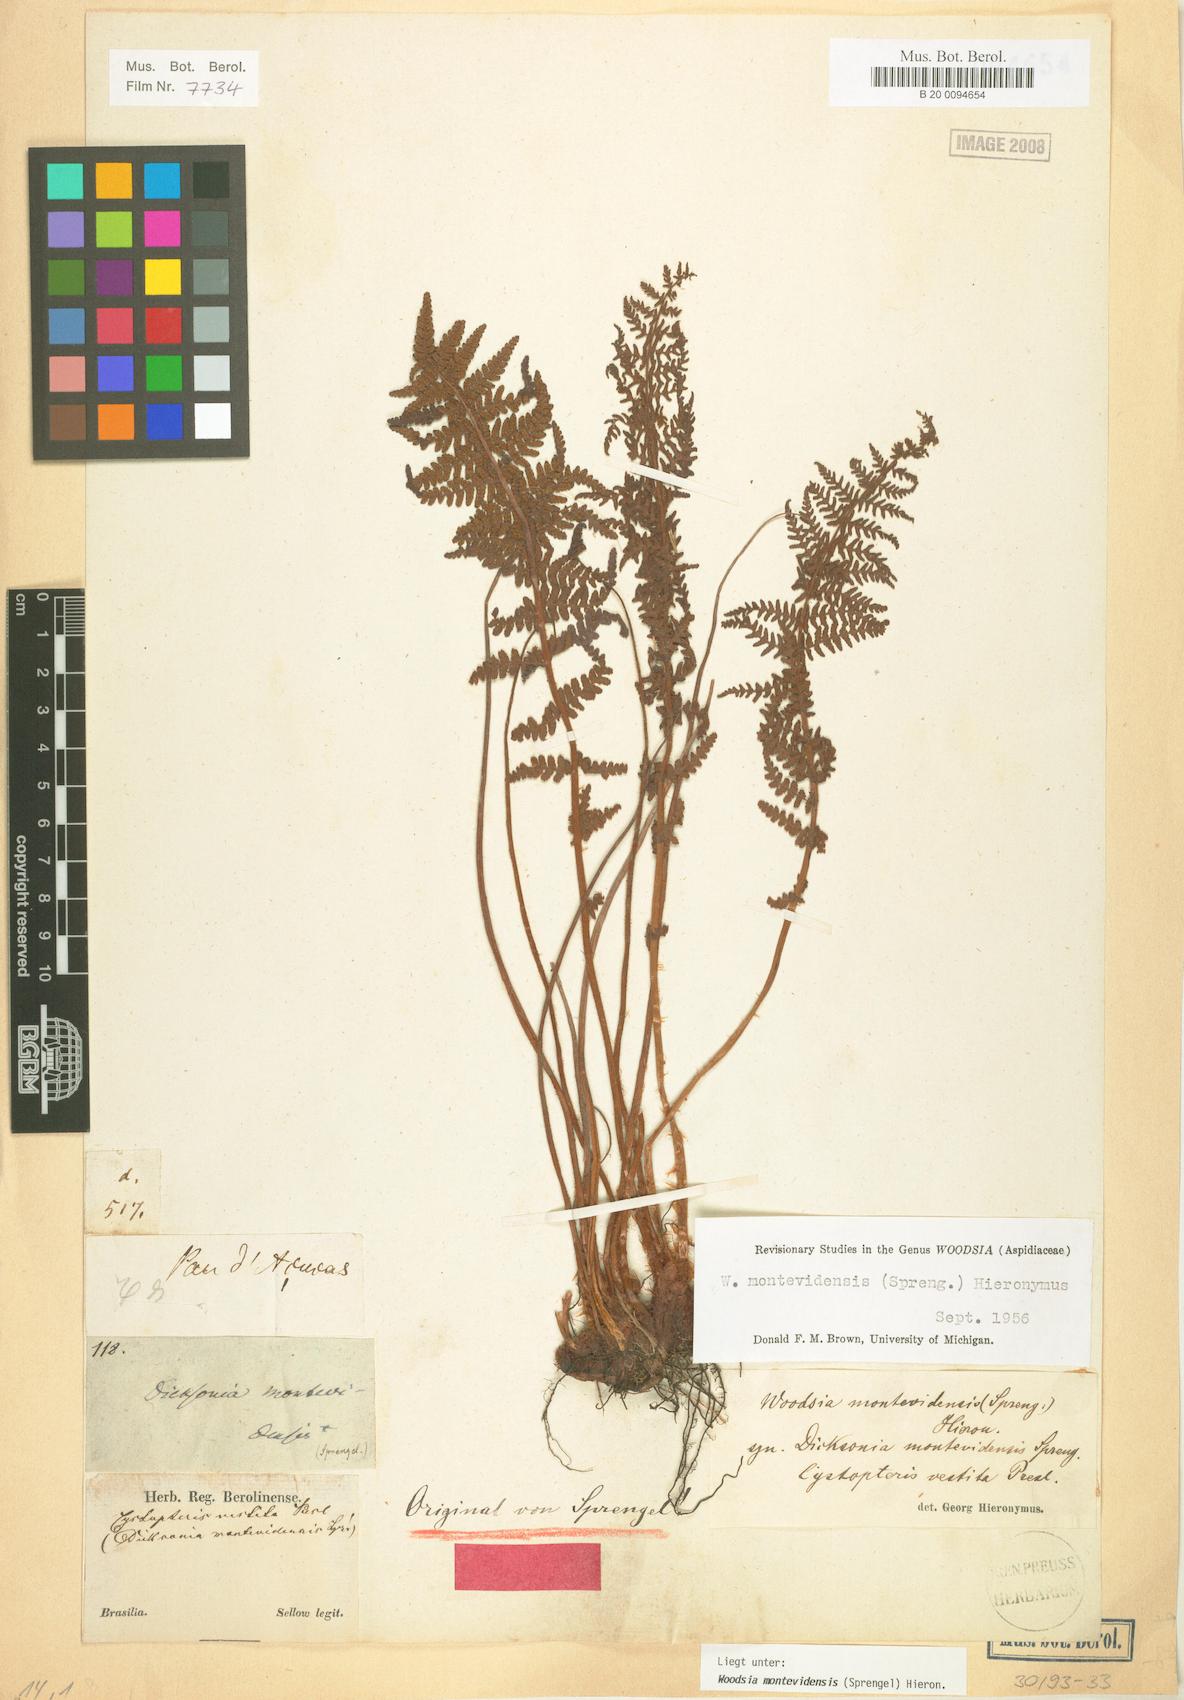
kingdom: Plantae
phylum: Tracheophyta
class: Polypodiopsida
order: Polypodiales
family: Woodsiaceae
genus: Physematium
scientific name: Physematium montevidense
